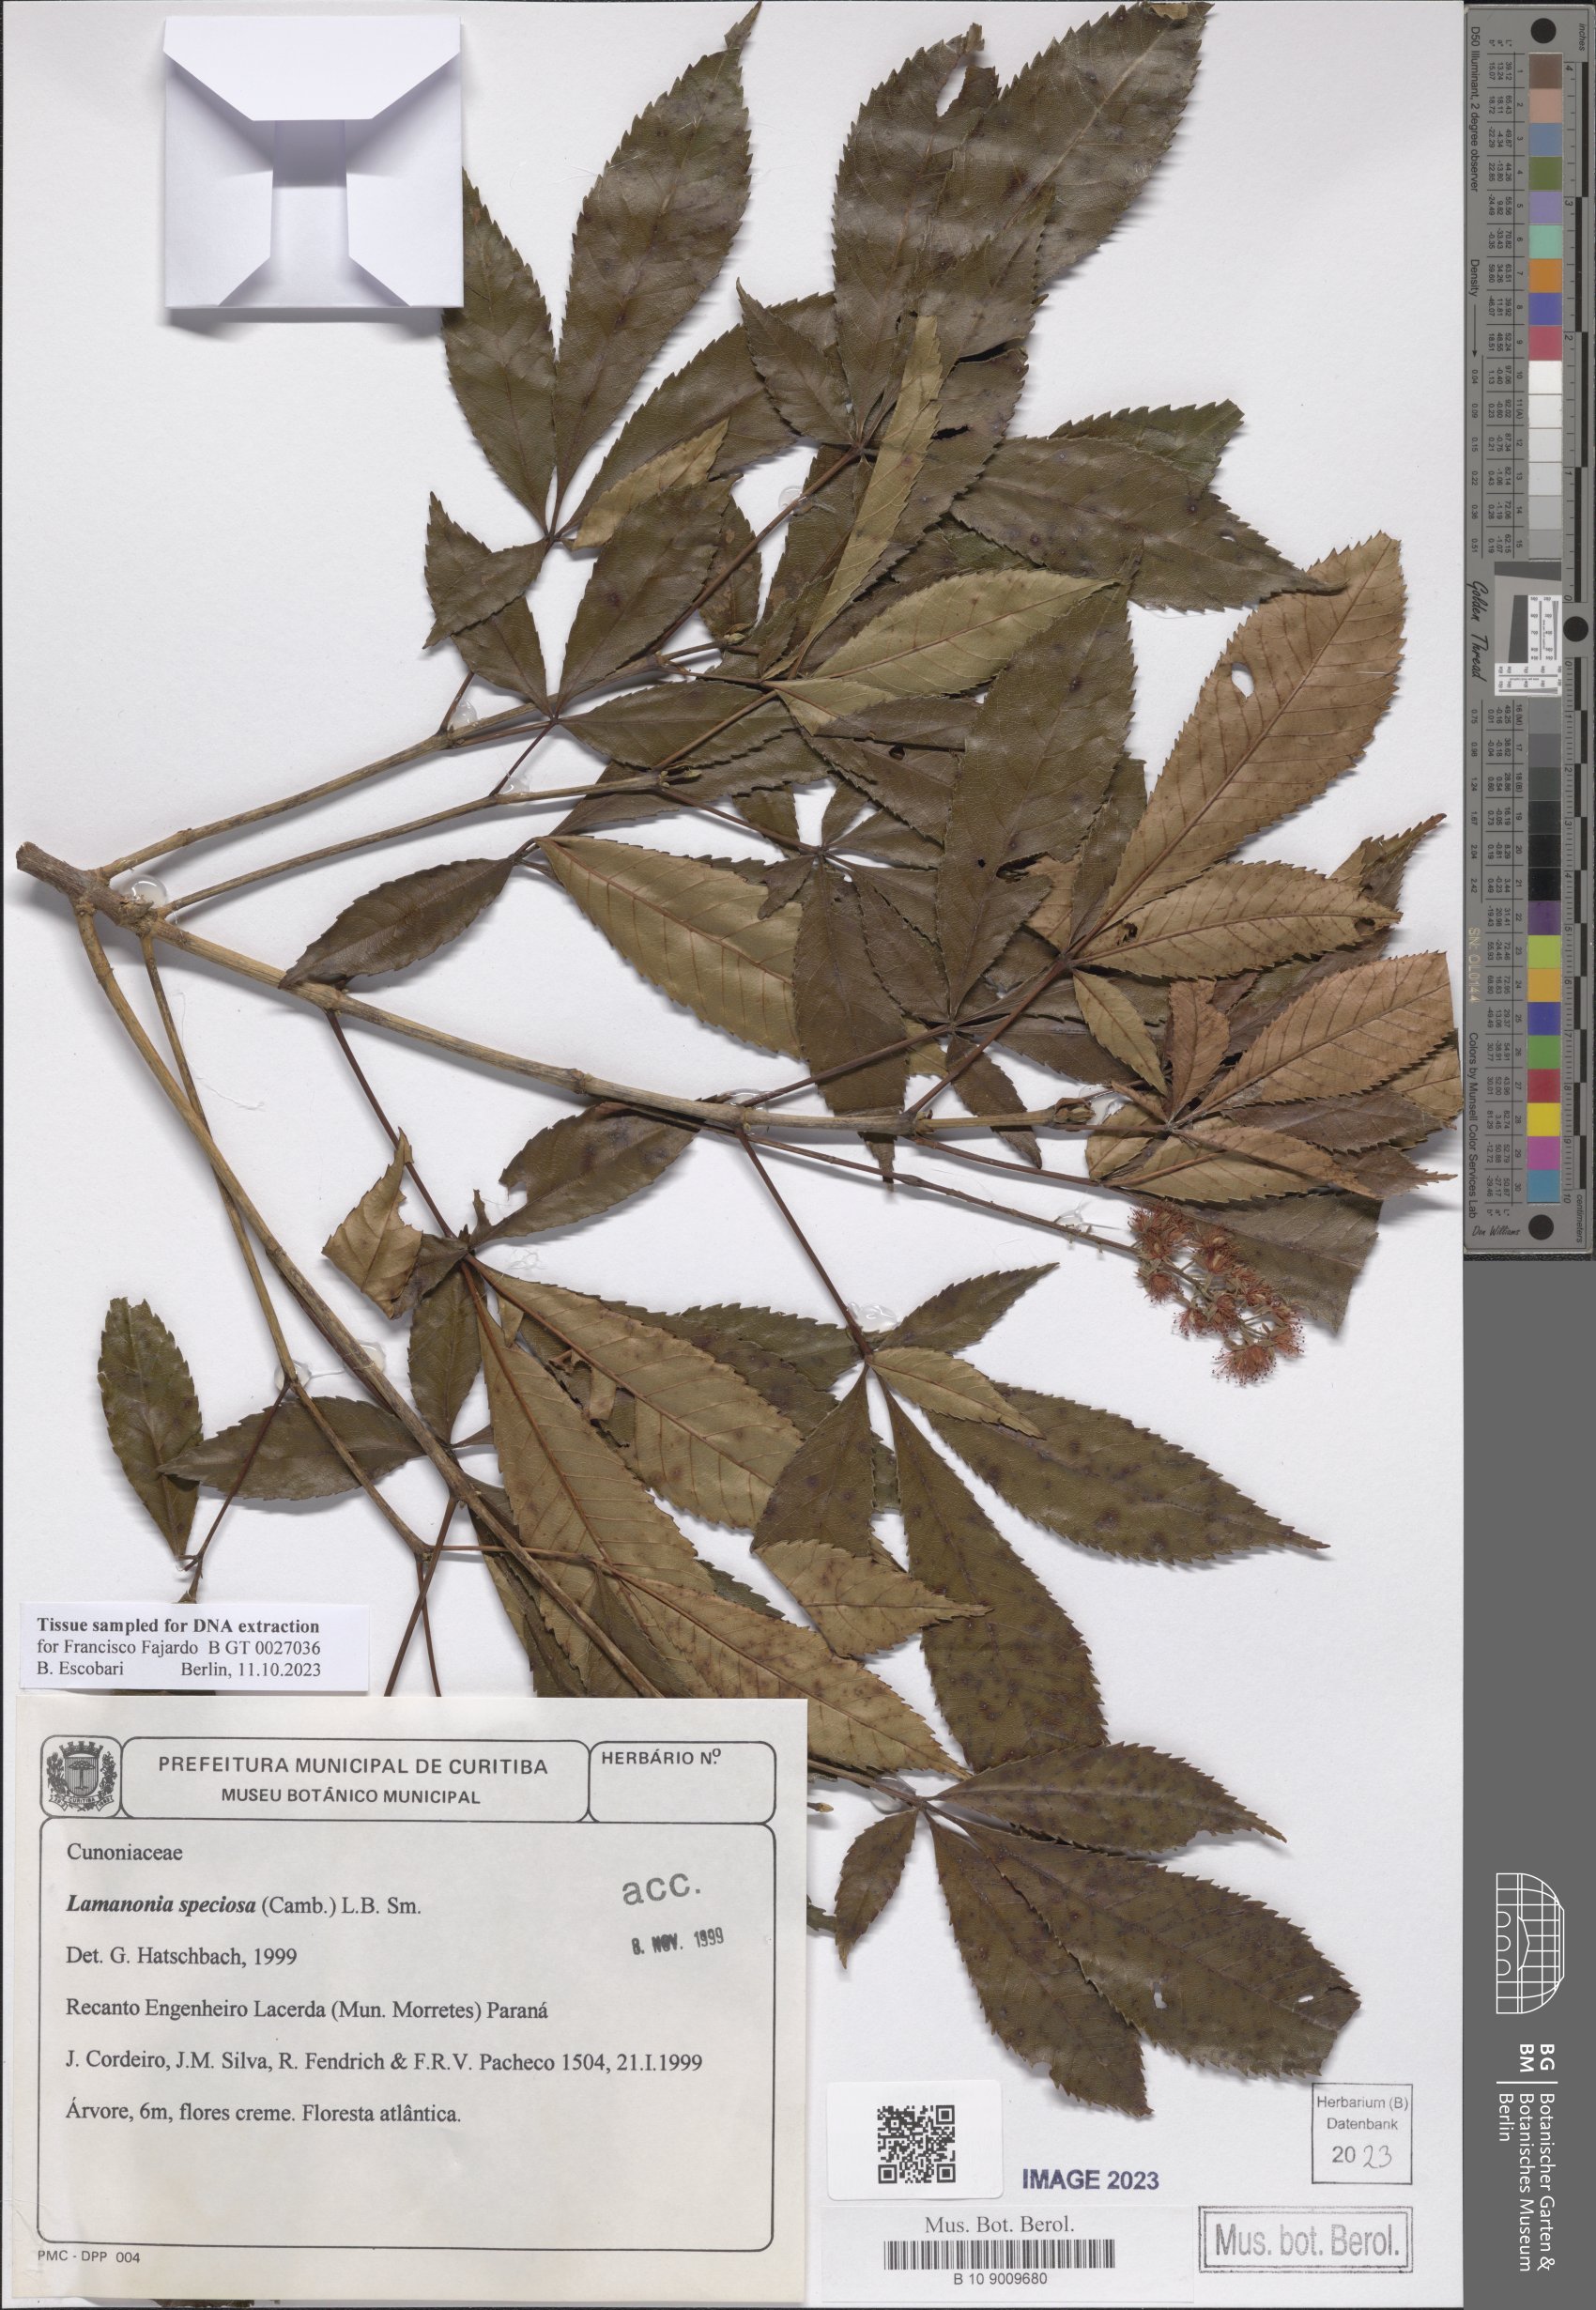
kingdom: Plantae
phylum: Tracheophyta
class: Magnoliopsida
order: Oxalidales
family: Cunoniaceae
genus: Lamanonia
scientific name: Lamanonia speciosa
